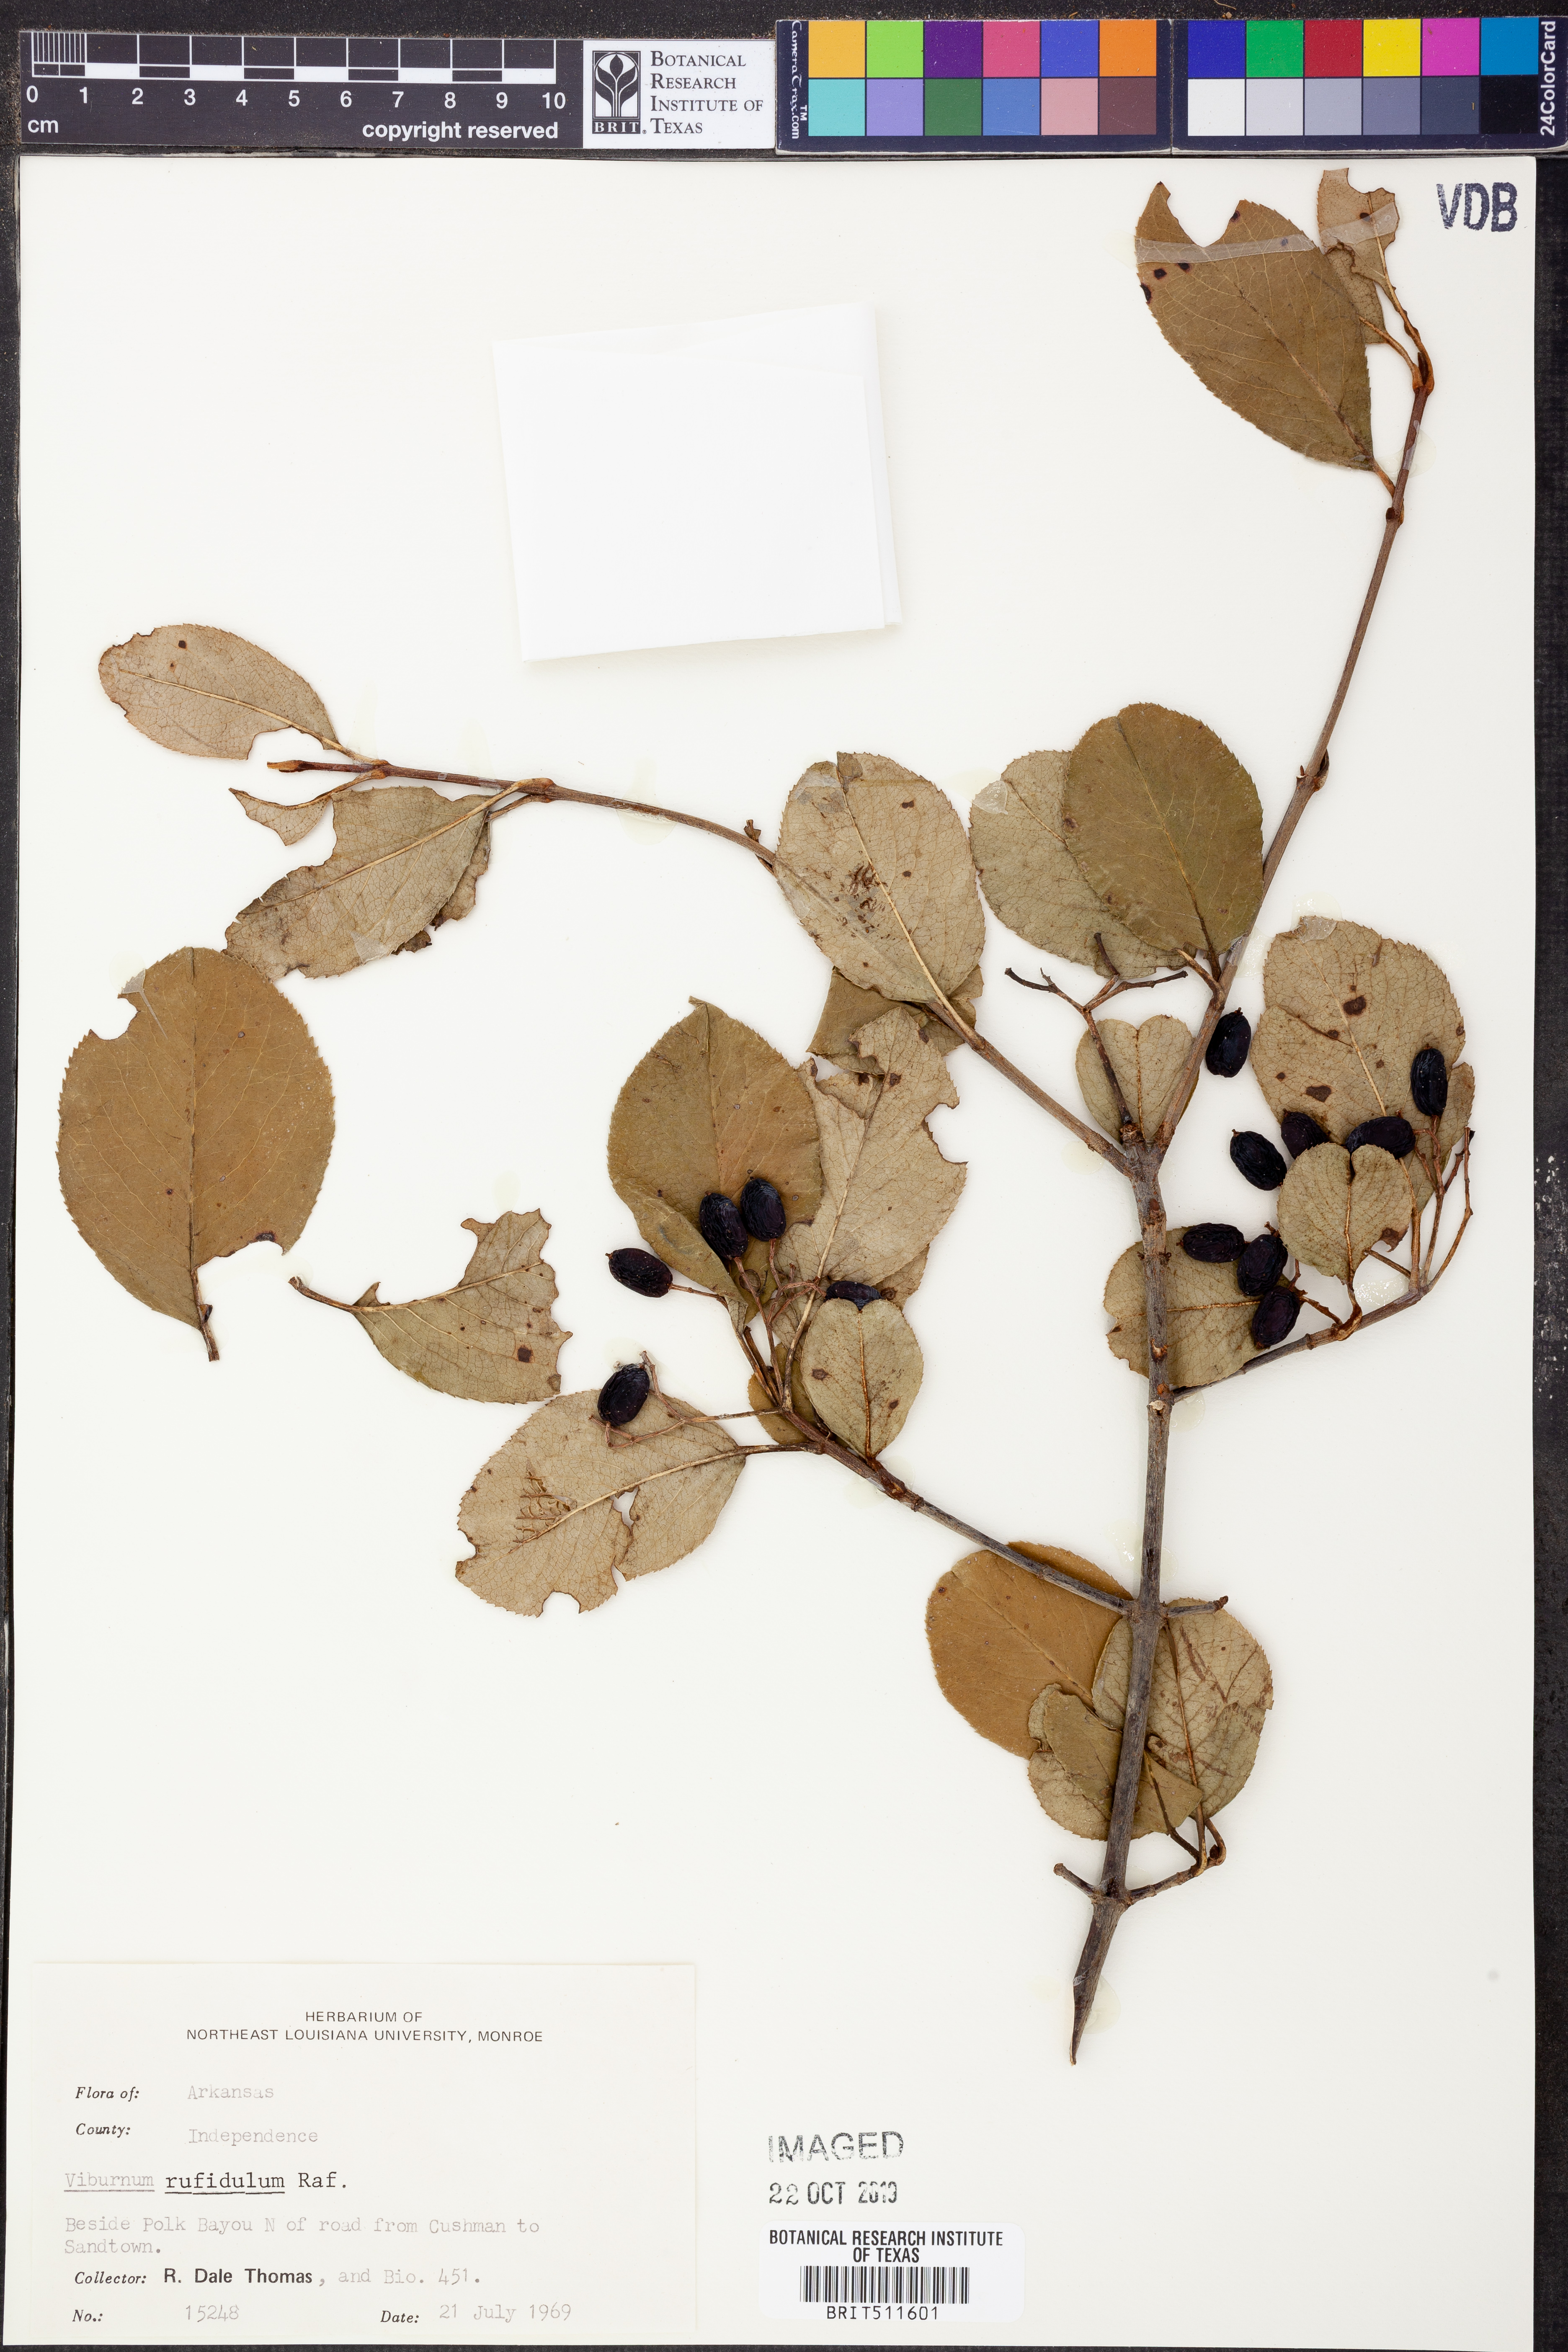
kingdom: Plantae
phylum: Tracheophyta
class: Magnoliopsida
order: Dipsacales
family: Viburnaceae
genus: Viburnum
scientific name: Viburnum rufidulum
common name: Blue haw
